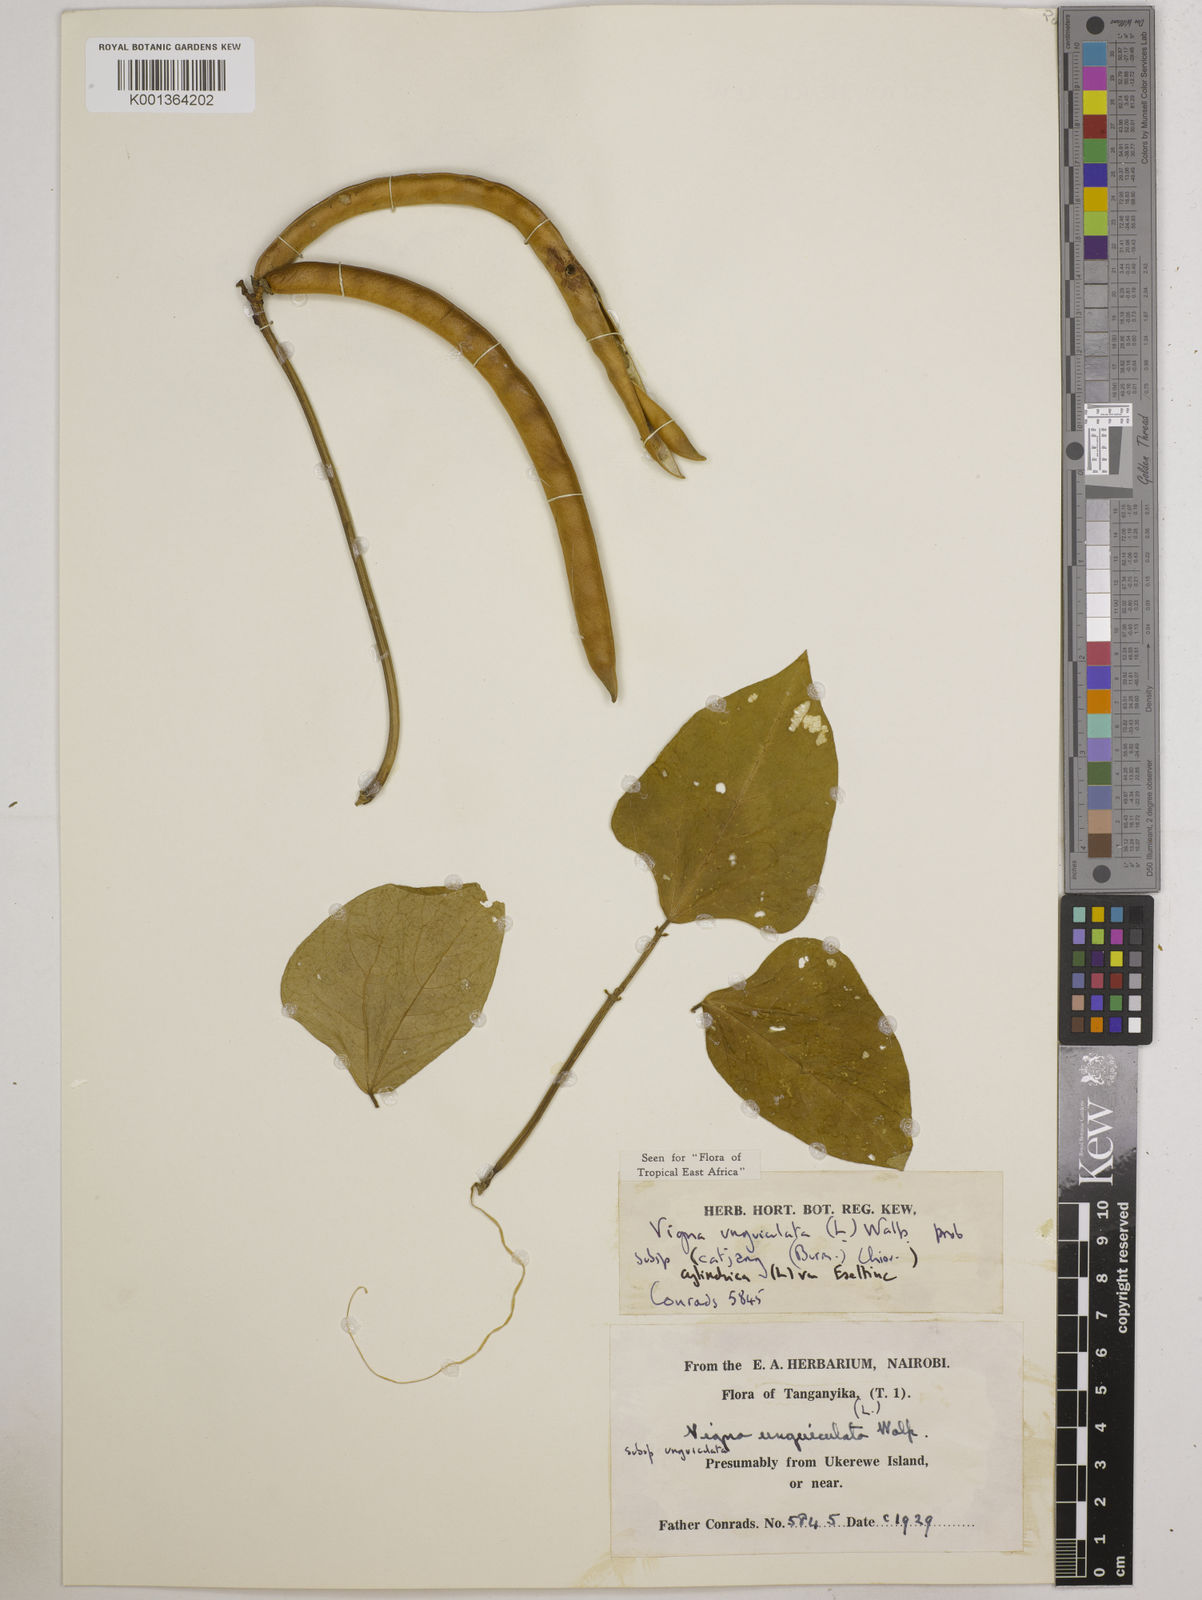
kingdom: Plantae
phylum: Tracheophyta
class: Magnoliopsida
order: Fabales
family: Fabaceae
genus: Vigna
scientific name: Vigna
